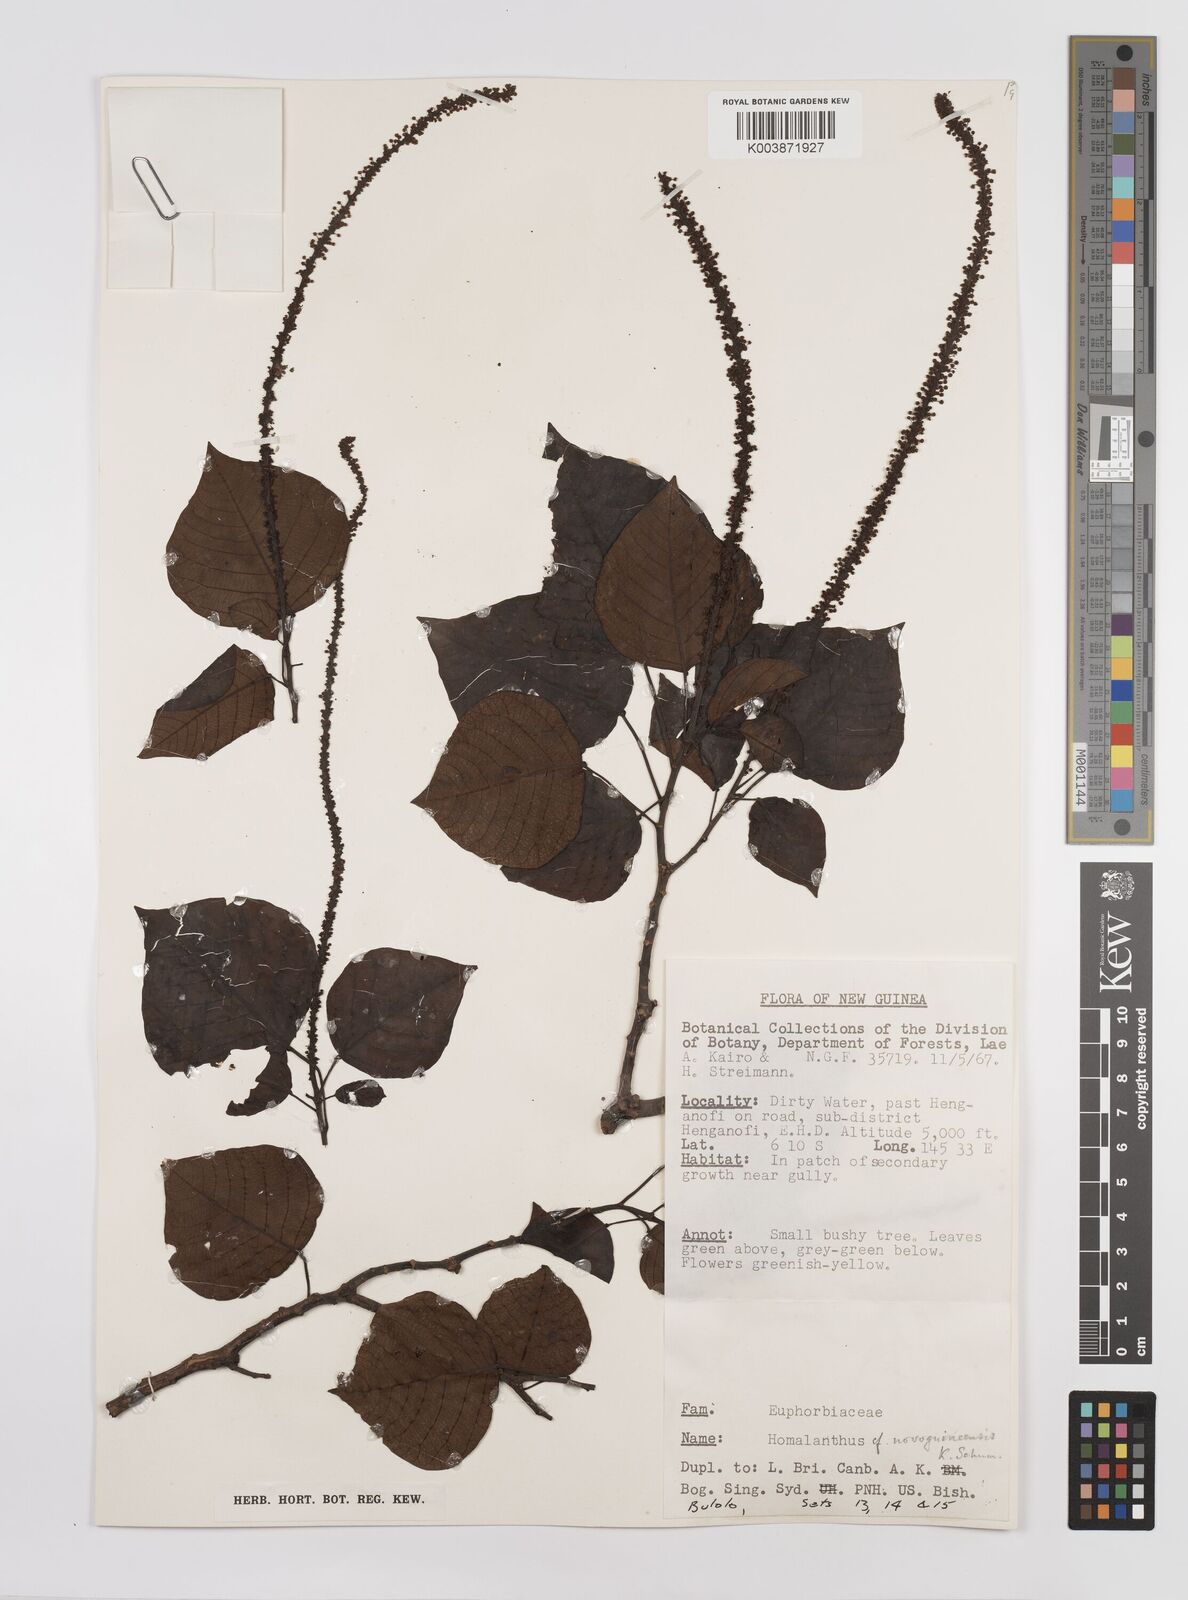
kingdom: Plantae
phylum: Tracheophyta
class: Magnoliopsida
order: Malpighiales
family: Euphorbiaceae
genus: Homalanthus
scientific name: Homalanthus novoguineensis
